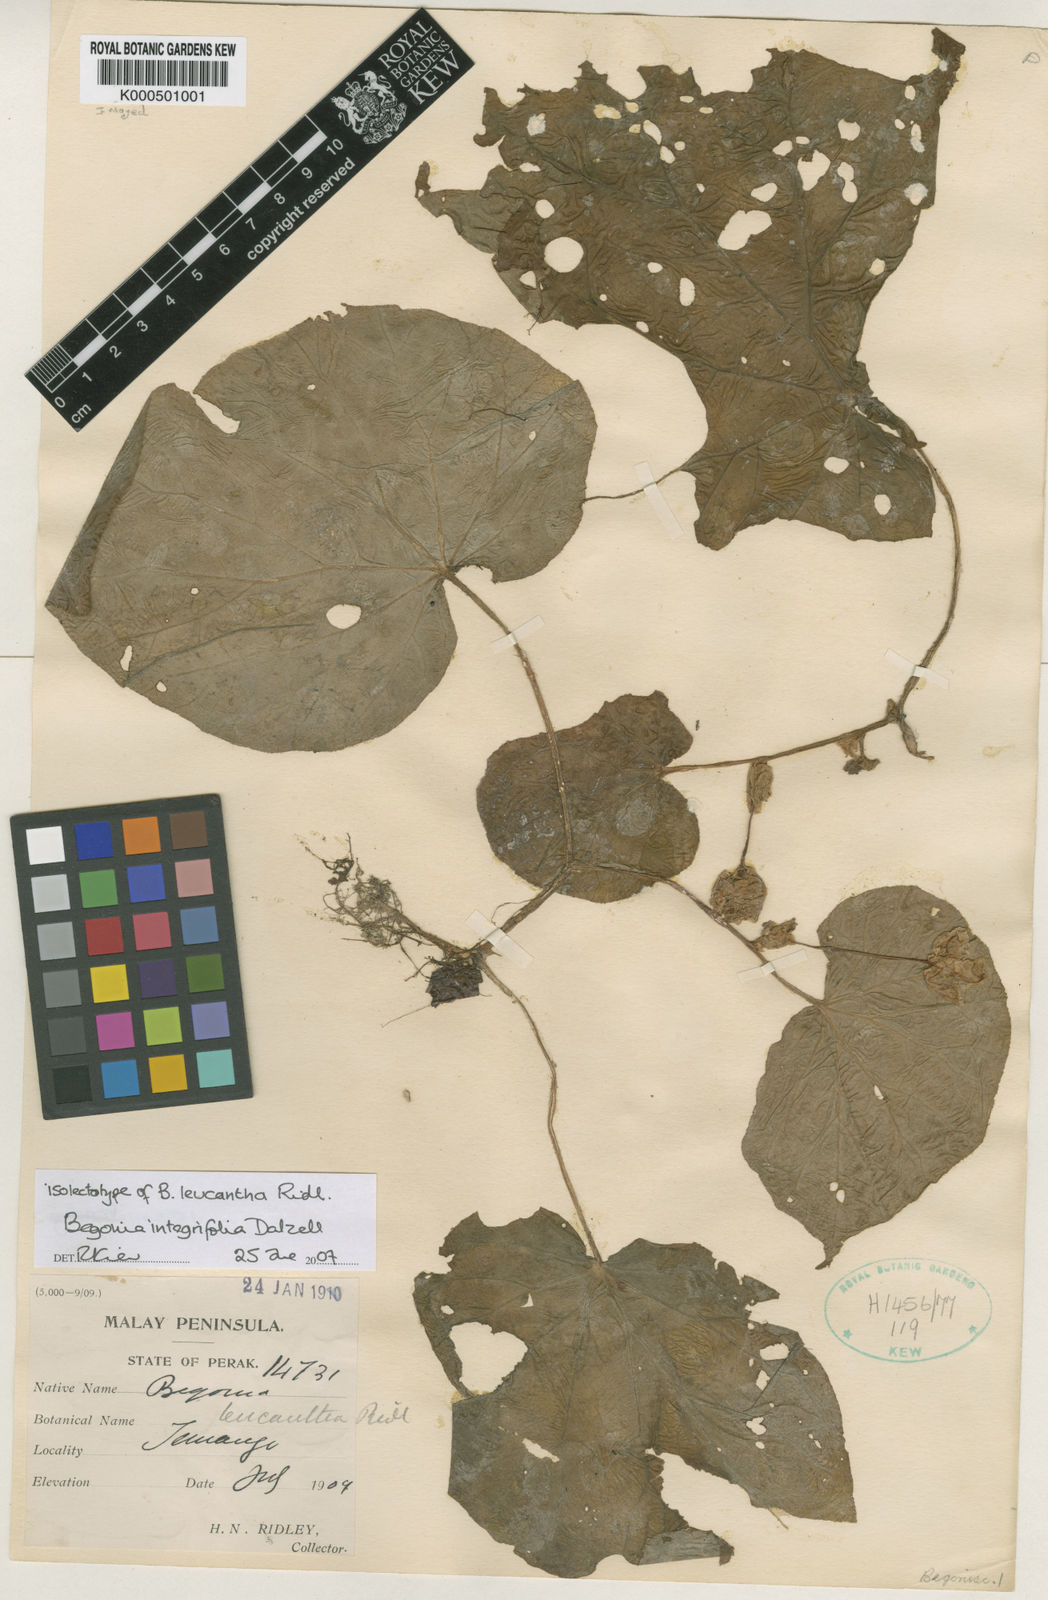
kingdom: Plantae
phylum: Tracheophyta
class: Magnoliopsida
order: Cucurbitales
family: Begoniaceae
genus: Begonia
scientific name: Begonia integrifolia
